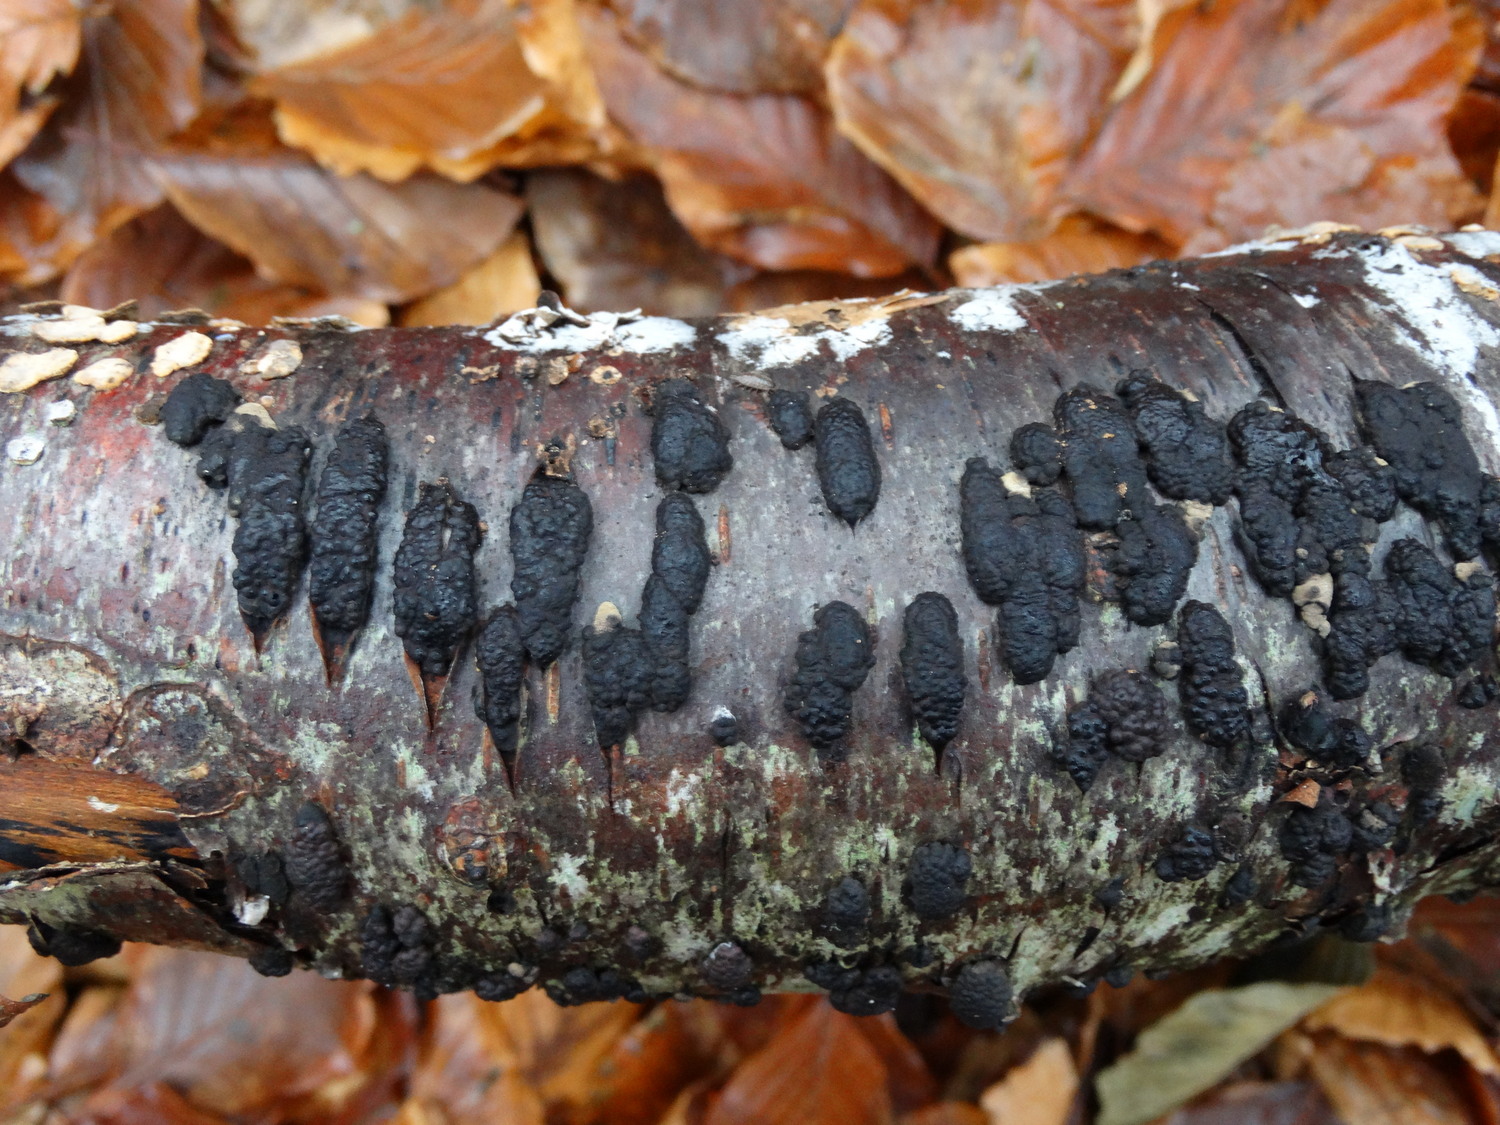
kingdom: Fungi
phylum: Ascomycota
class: Sordariomycetes
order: Xylariales
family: Hypoxylaceae
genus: Jackrogersella
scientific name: Jackrogersella multiformis
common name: foranderlig kulbær
